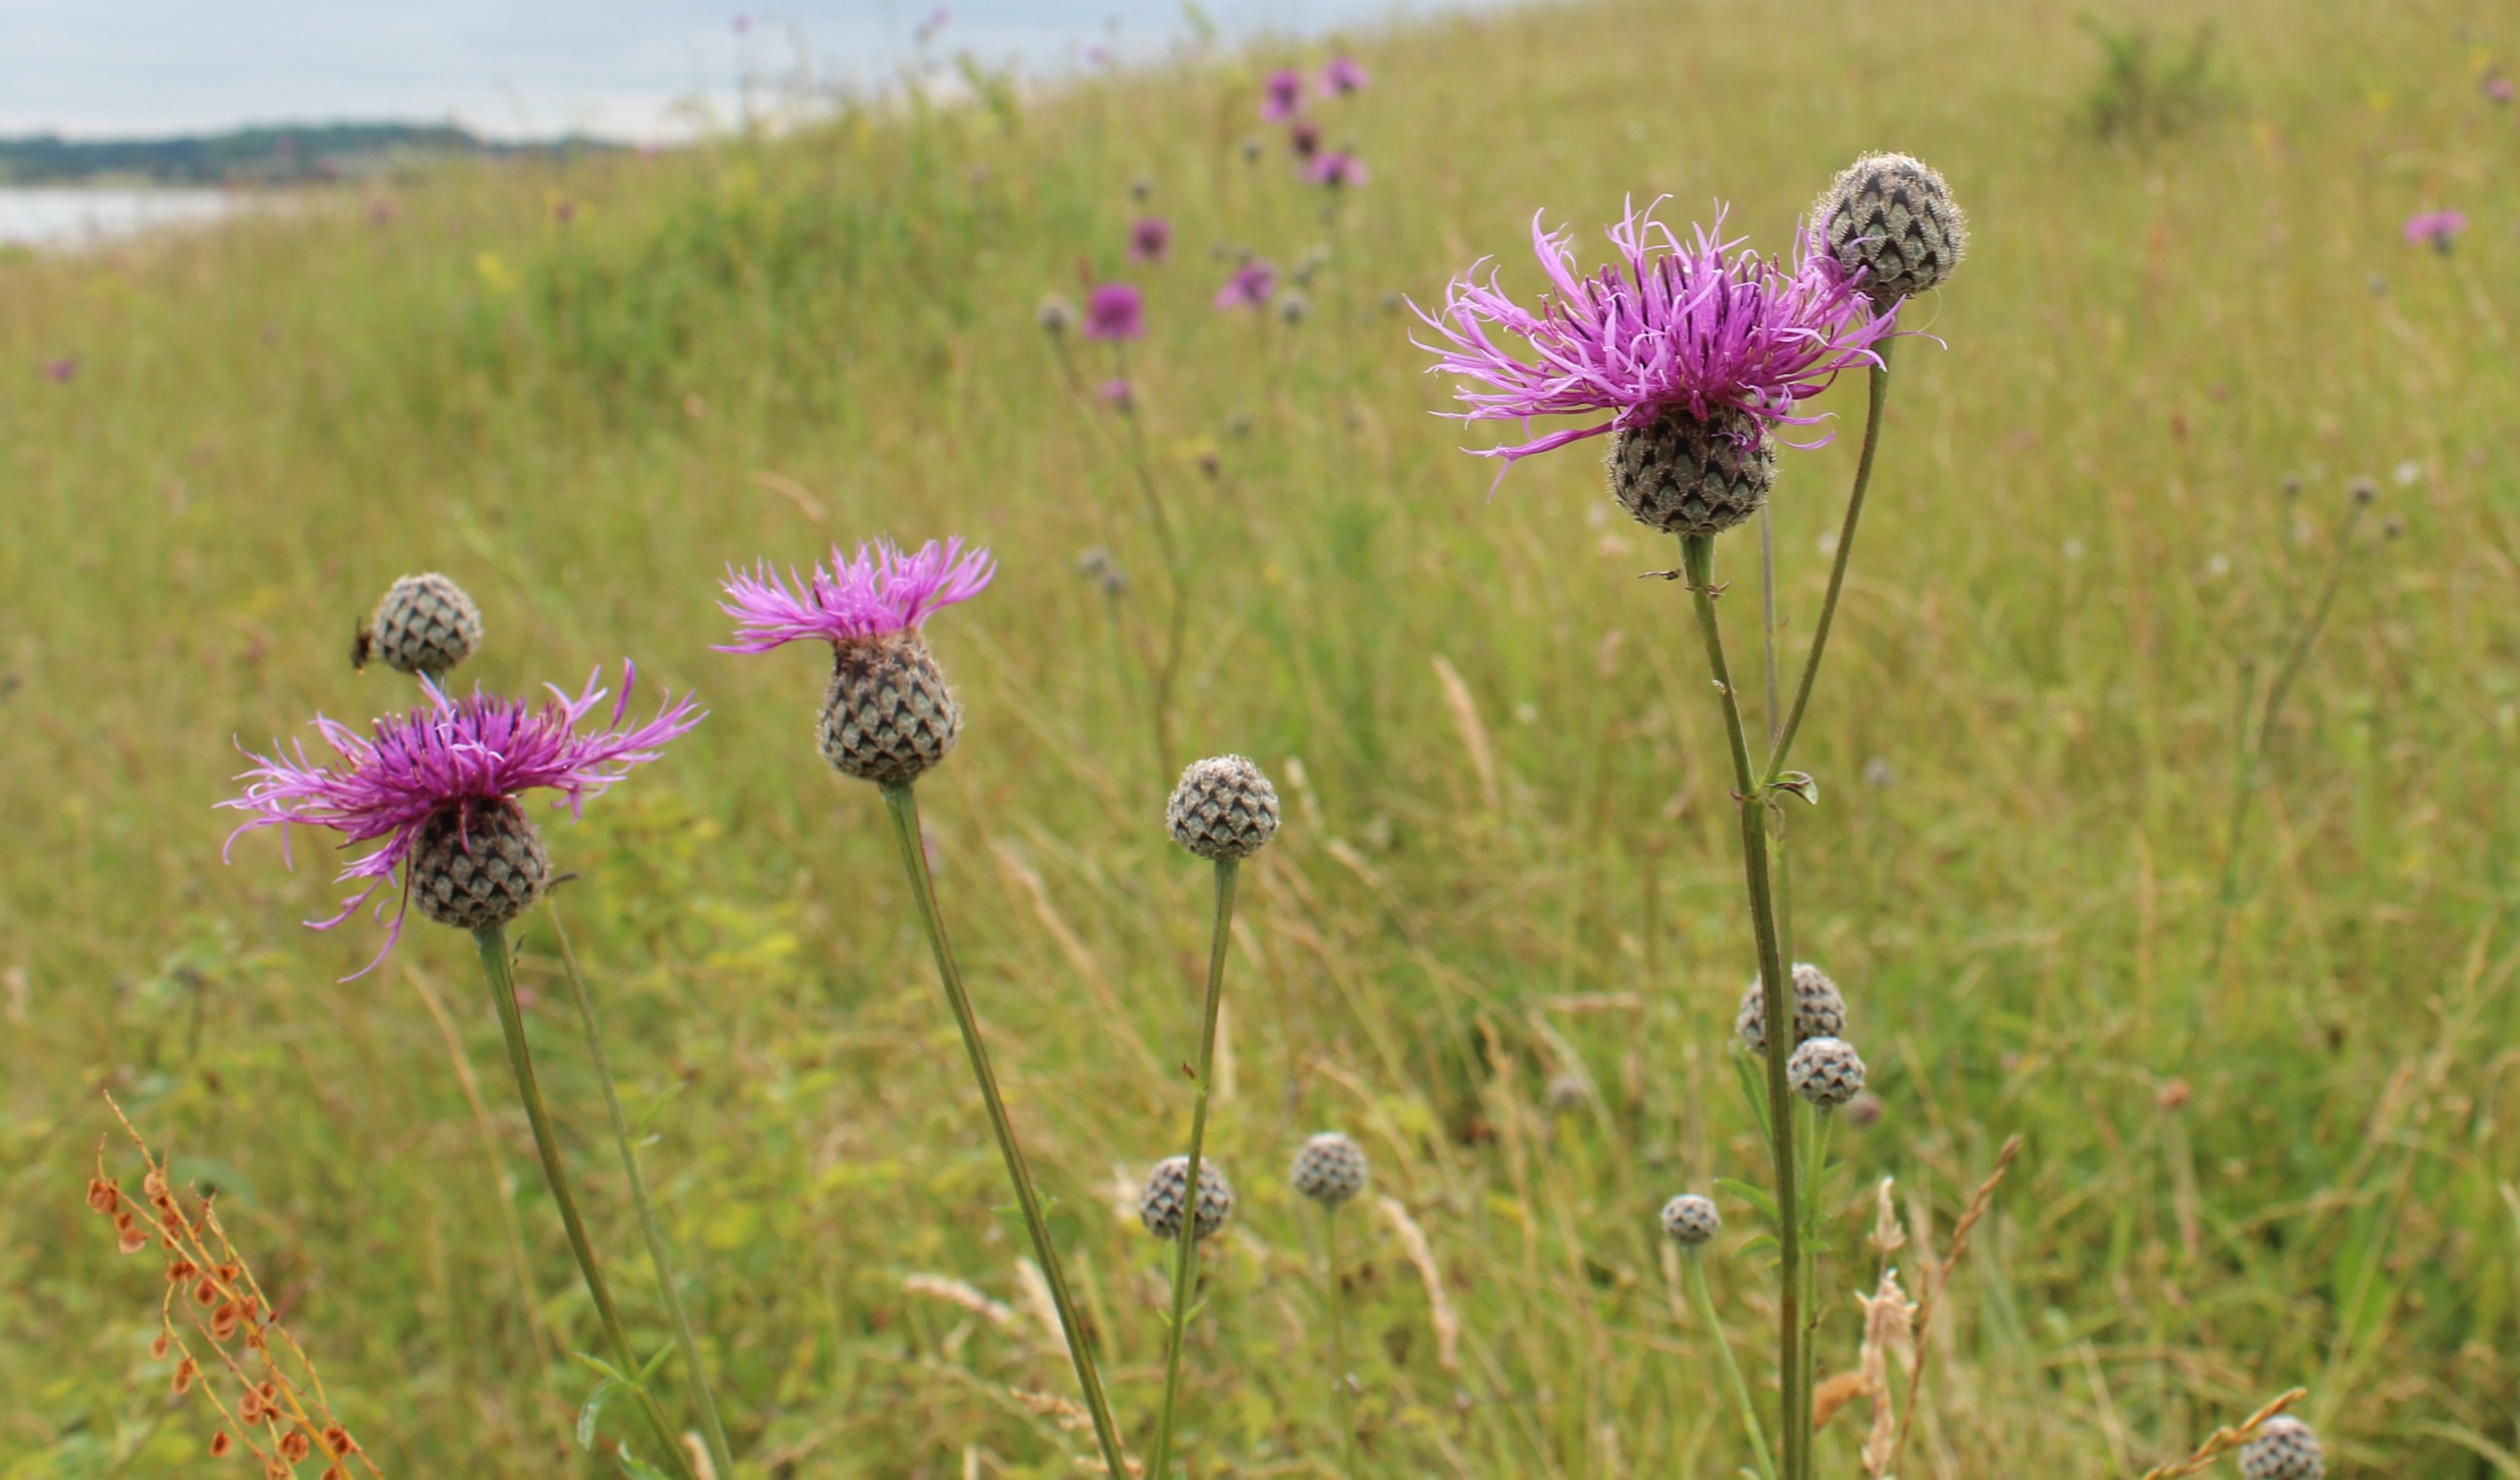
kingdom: Plantae
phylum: Tracheophyta
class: Magnoliopsida
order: Asterales
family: Asteraceae
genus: Centaurea
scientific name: Centaurea scabiosa
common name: Stor knopurt
